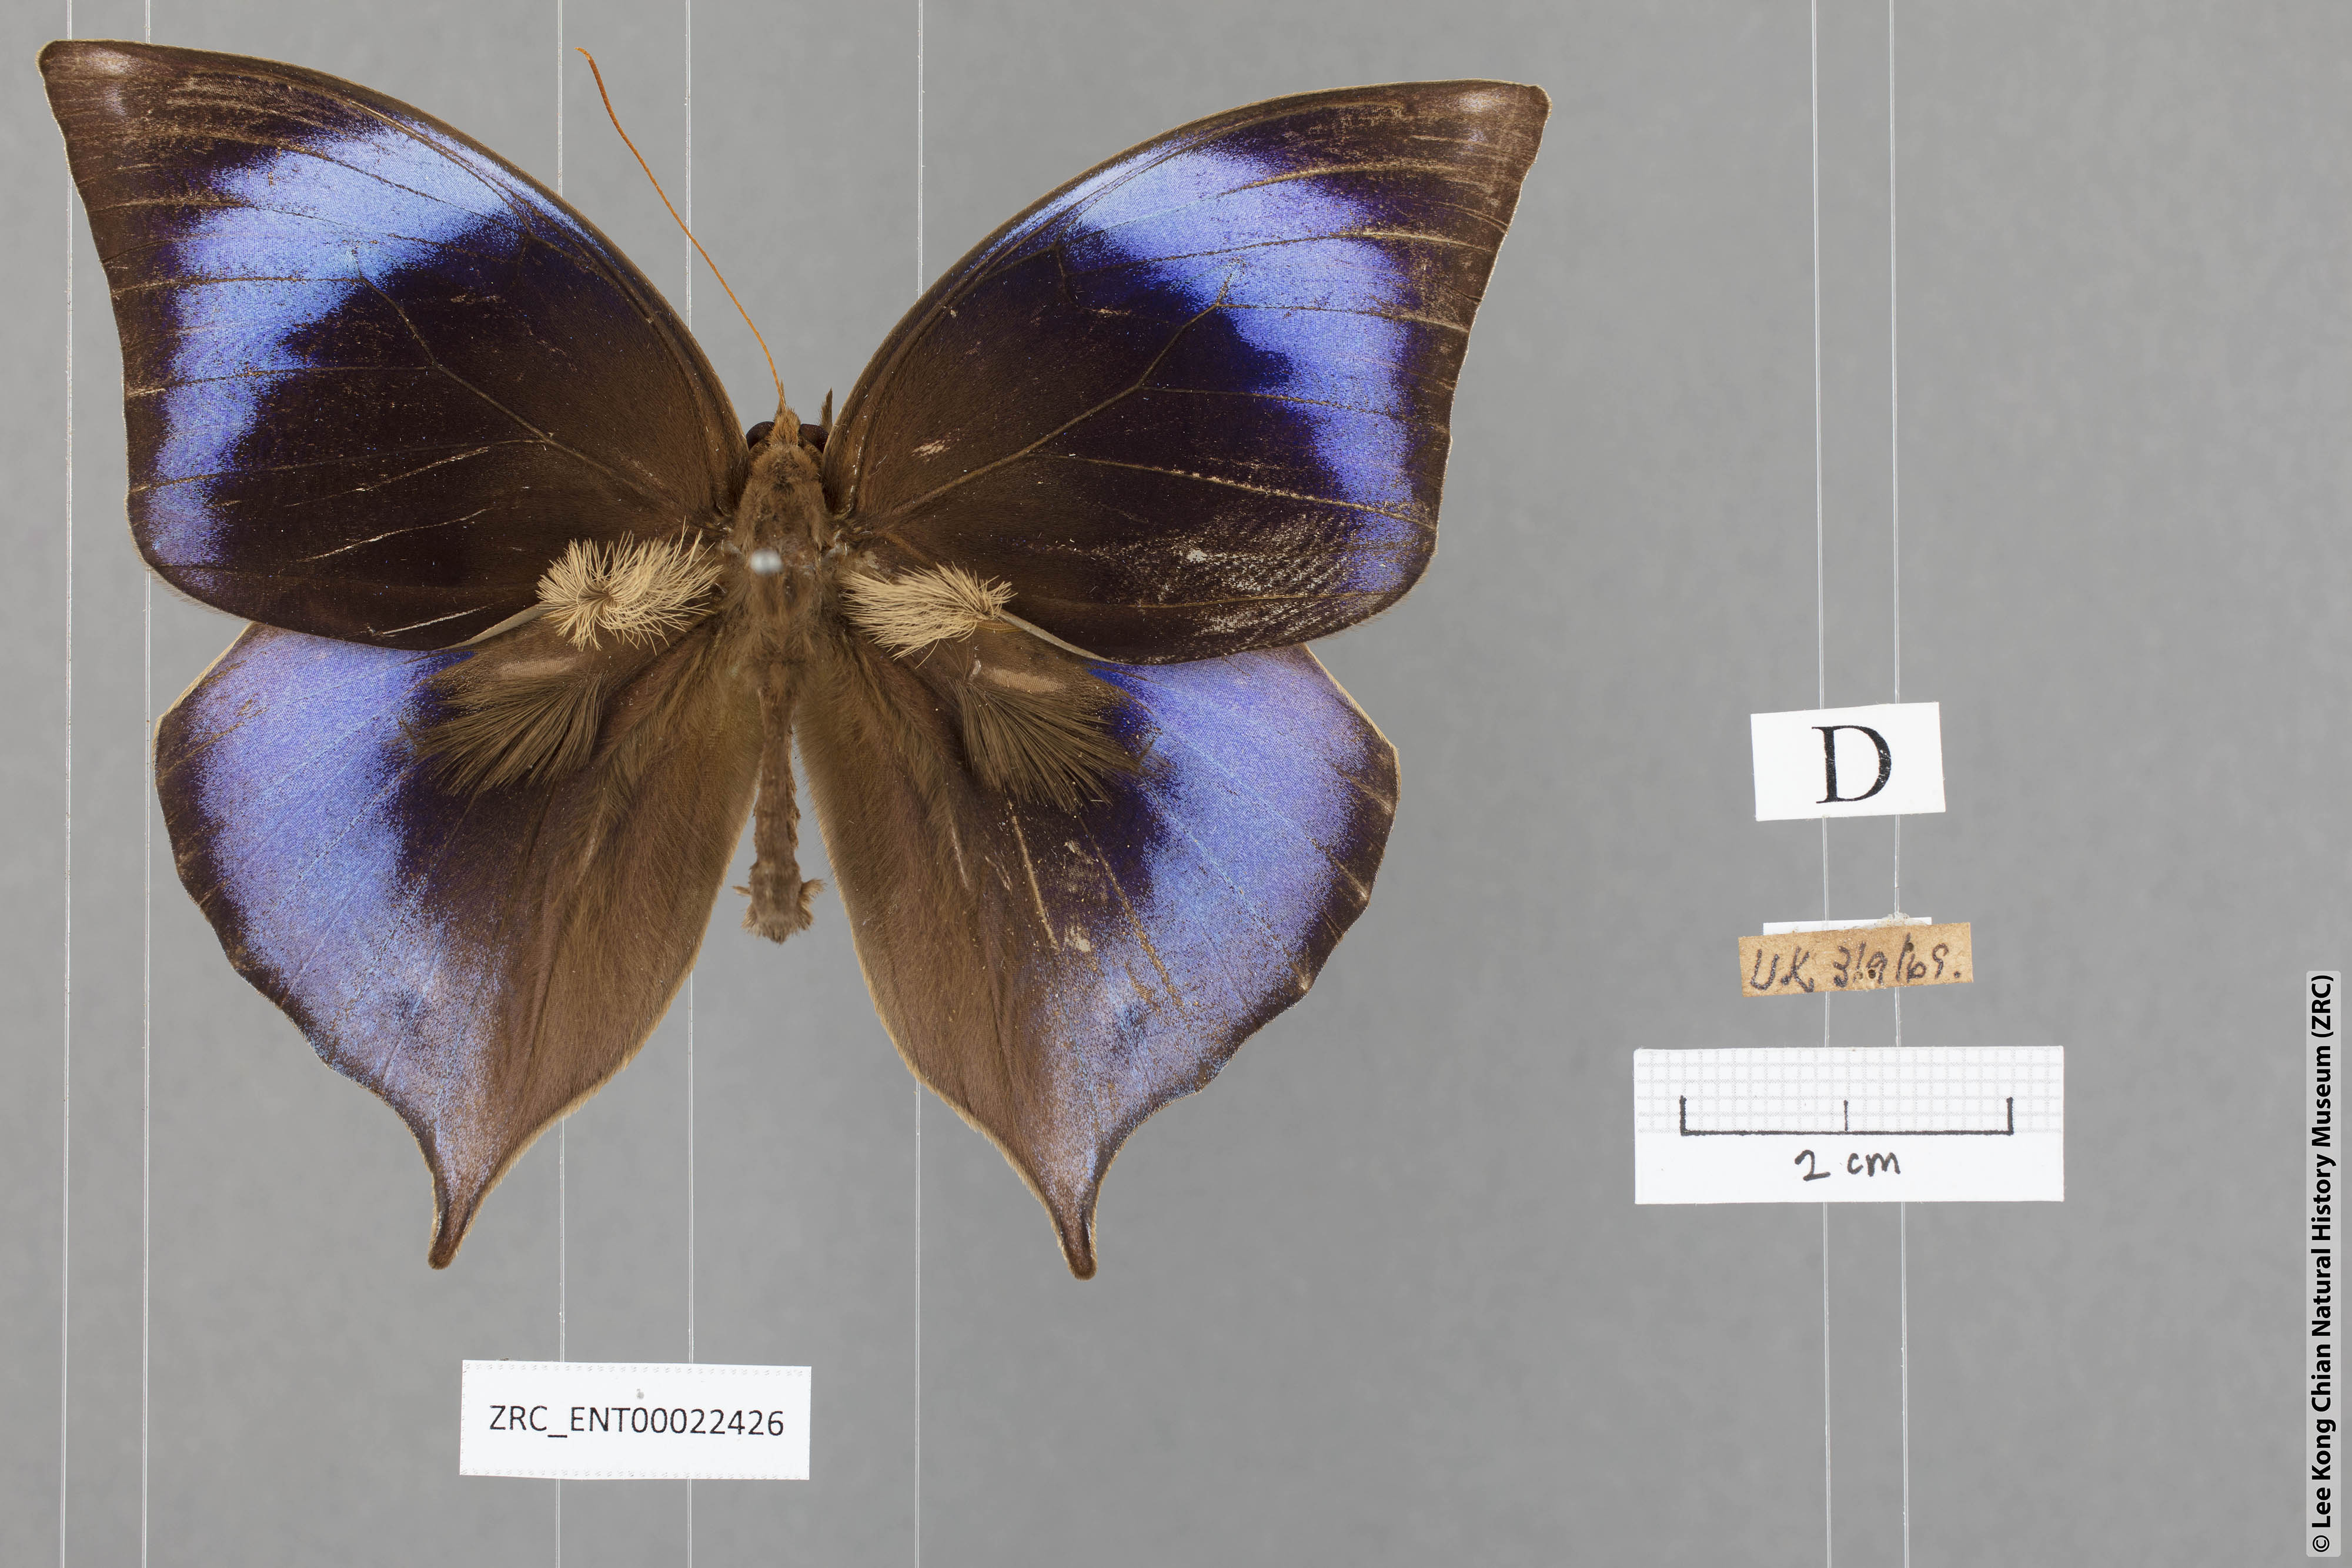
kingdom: Animalia
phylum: Arthropoda
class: Insecta
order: Lepidoptera
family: Nymphalidae
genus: Zeuxidia
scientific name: Zeuxidia doubledaii
